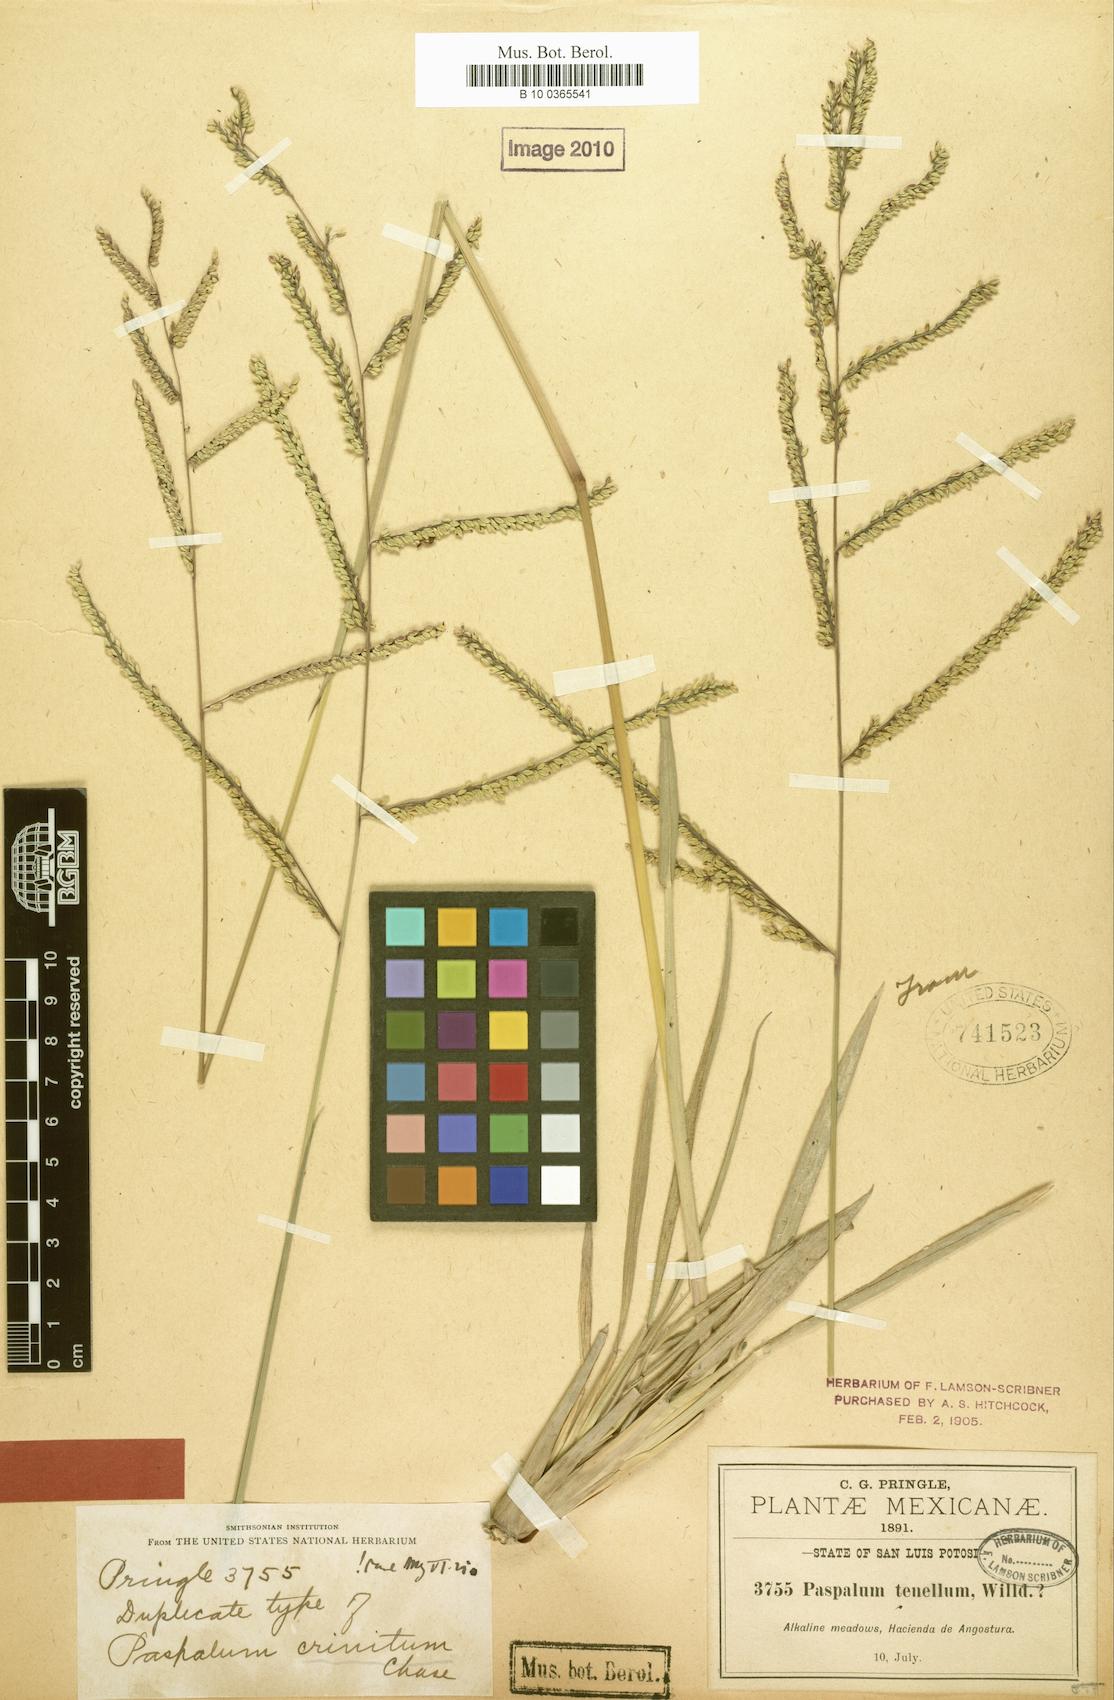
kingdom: Plantae
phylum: Tracheophyta
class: Liliopsida
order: Poales
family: Poaceae
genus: Paspalum
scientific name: Paspalum crinitum
